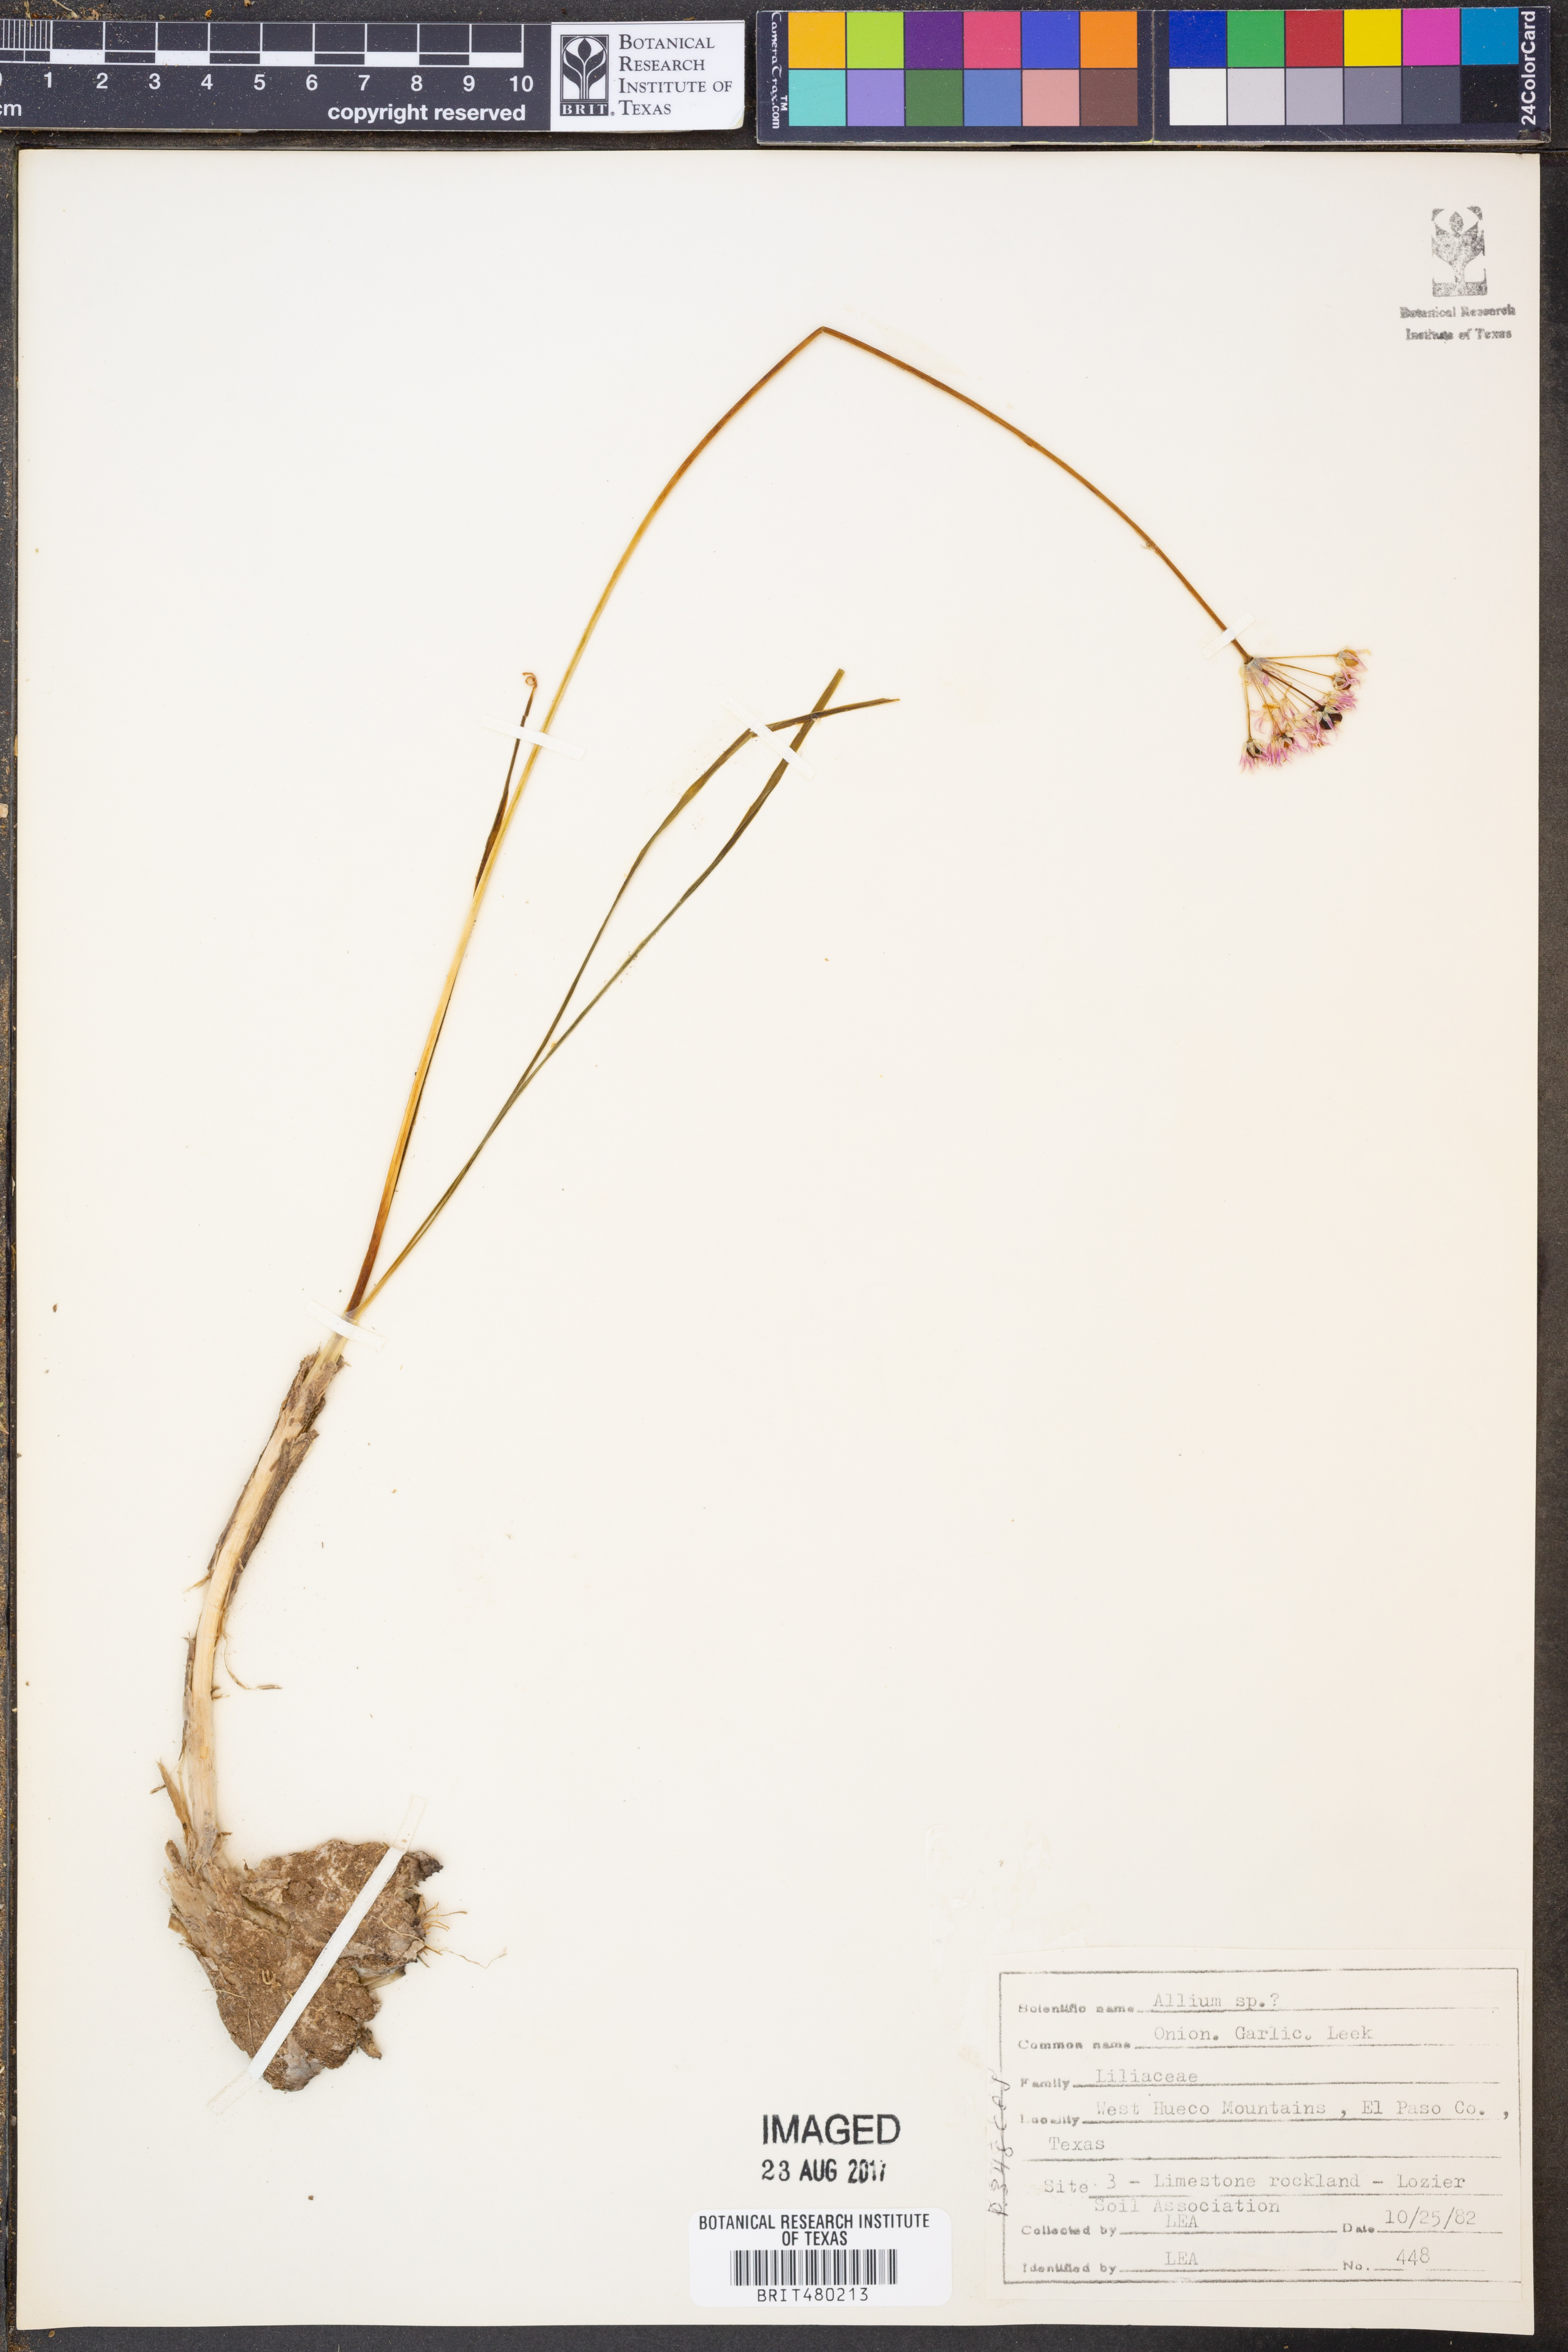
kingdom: Plantae
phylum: Tracheophyta
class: Liliopsida
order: Asparagales
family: Amaryllidaceae
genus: Allium
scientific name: Allium
